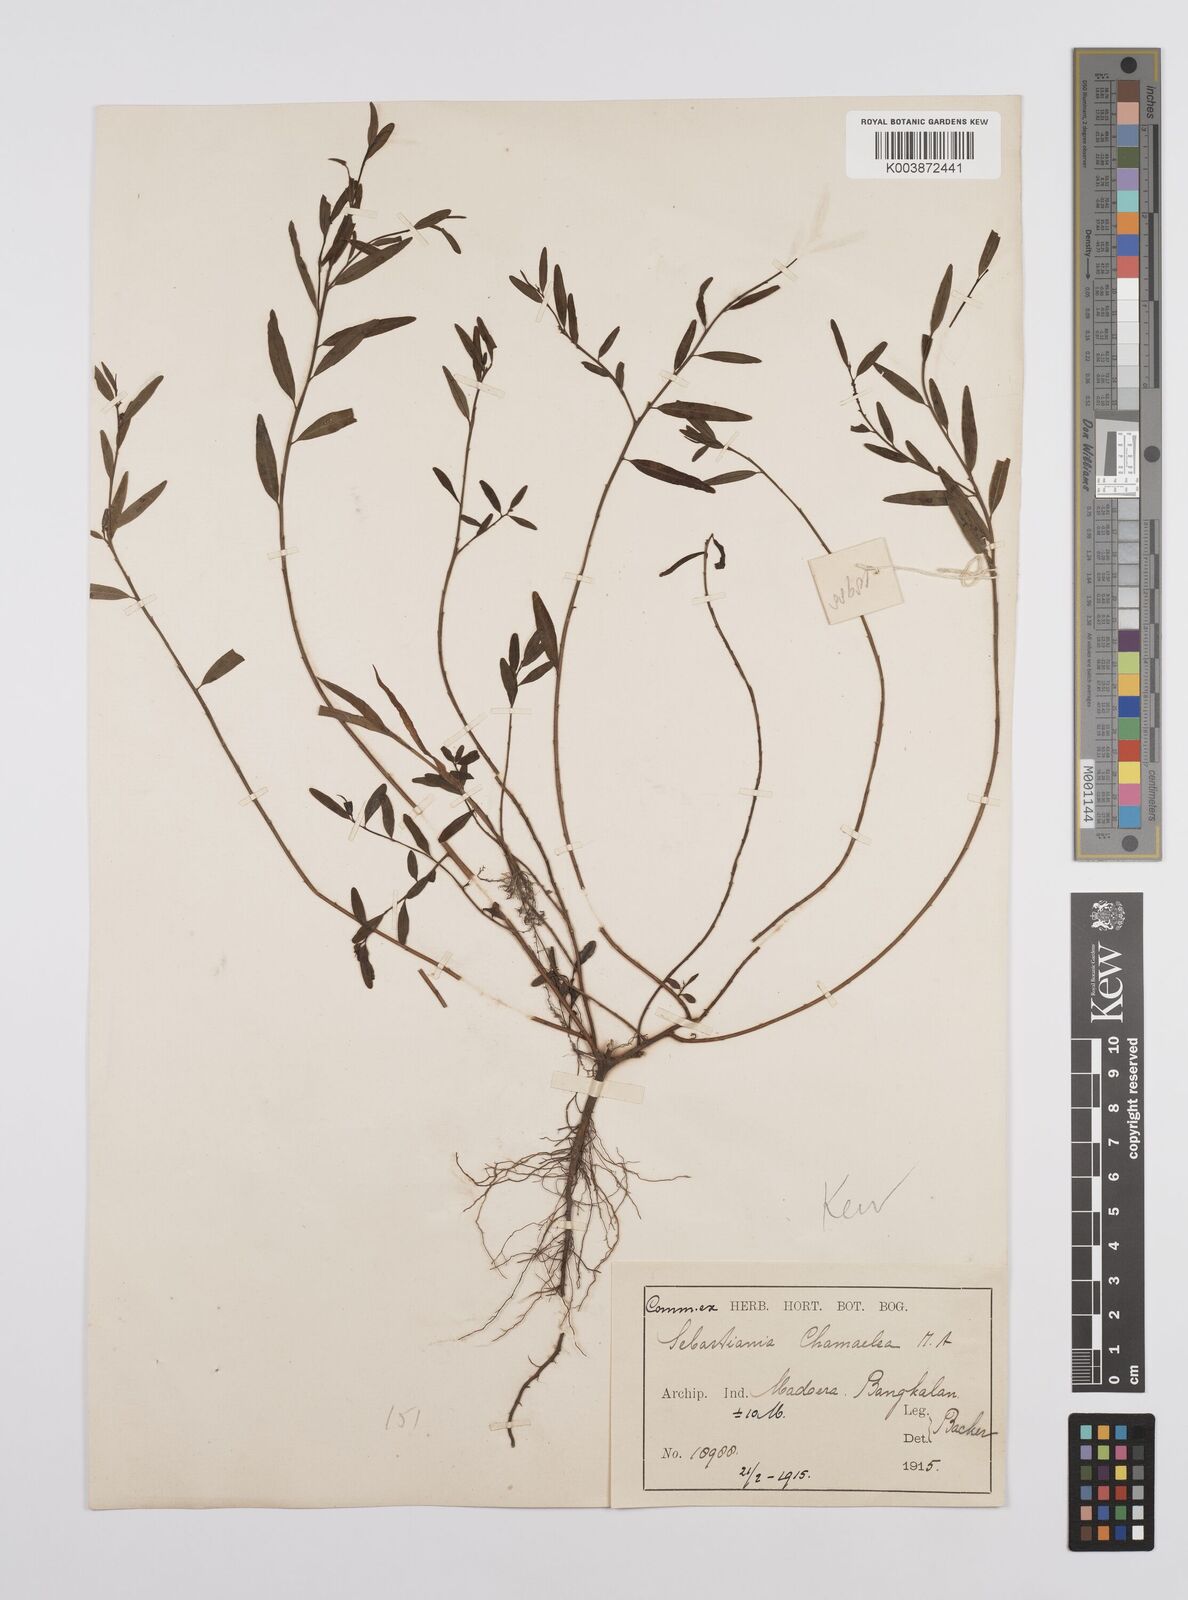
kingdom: Plantae
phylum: Tracheophyta
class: Magnoliopsida
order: Malpighiales
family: Euphorbiaceae
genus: Microstachys
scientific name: Microstachys chamaelea
